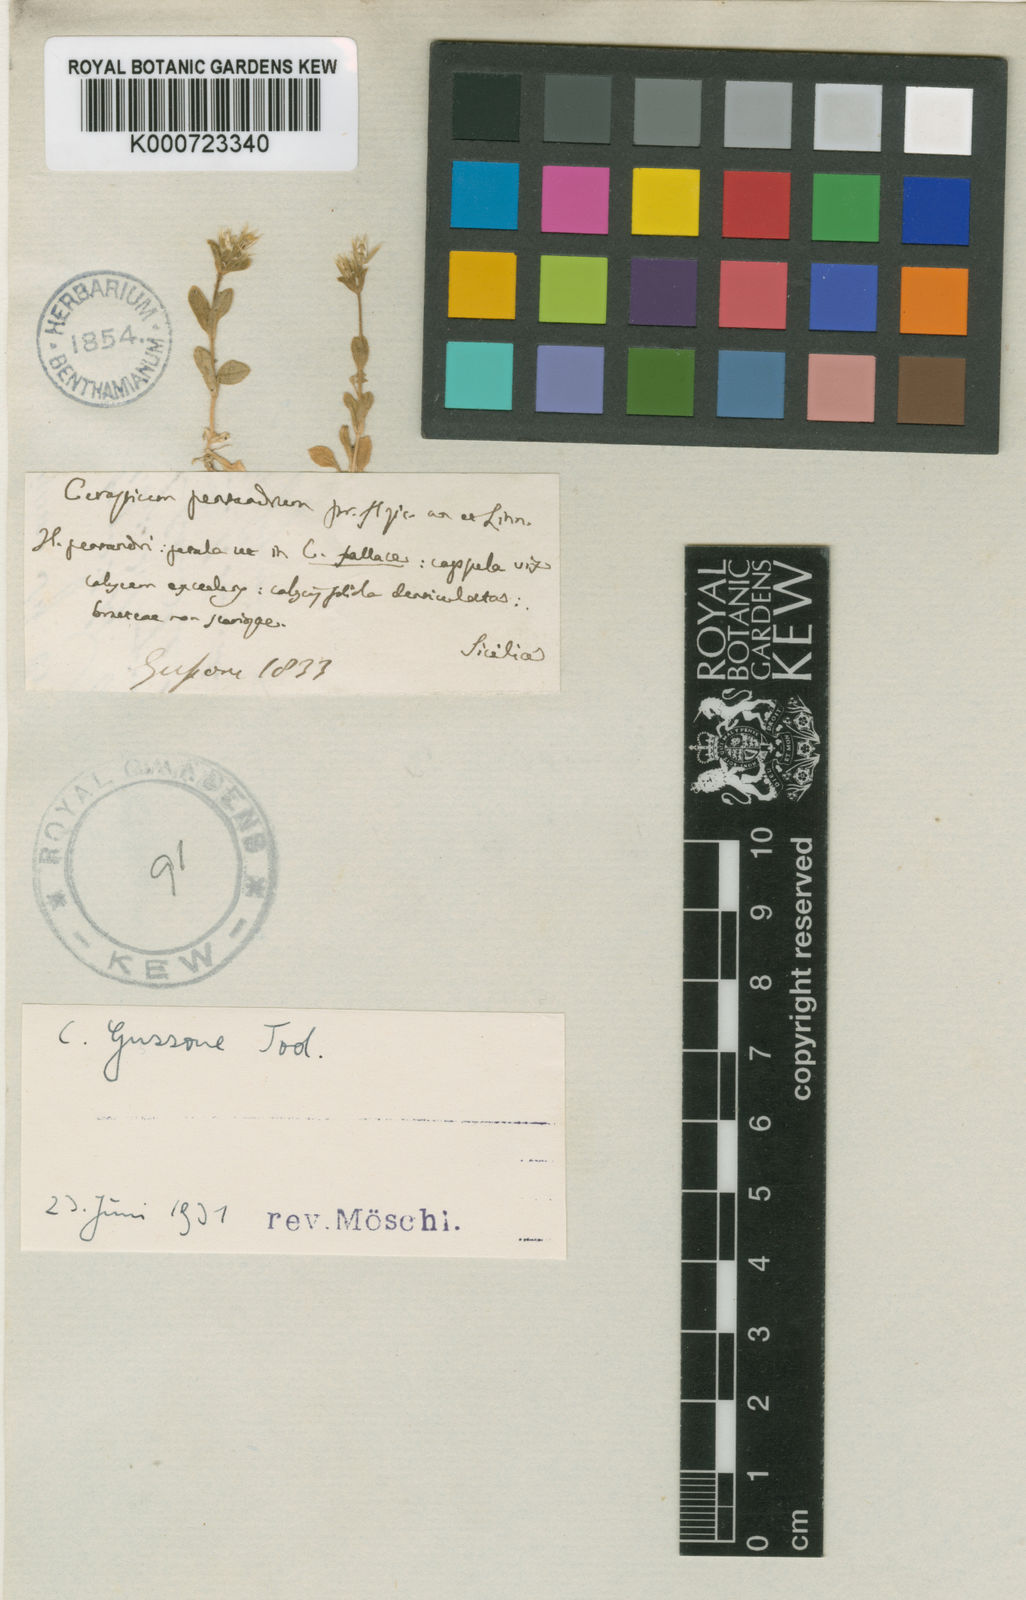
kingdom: Plantae
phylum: Tracheophyta
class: Magnoliopsida
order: Caryophyllales
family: Caryophyllaceae
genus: Cerastium
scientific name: Cerastium diffusum
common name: Fourstamen chickweed
